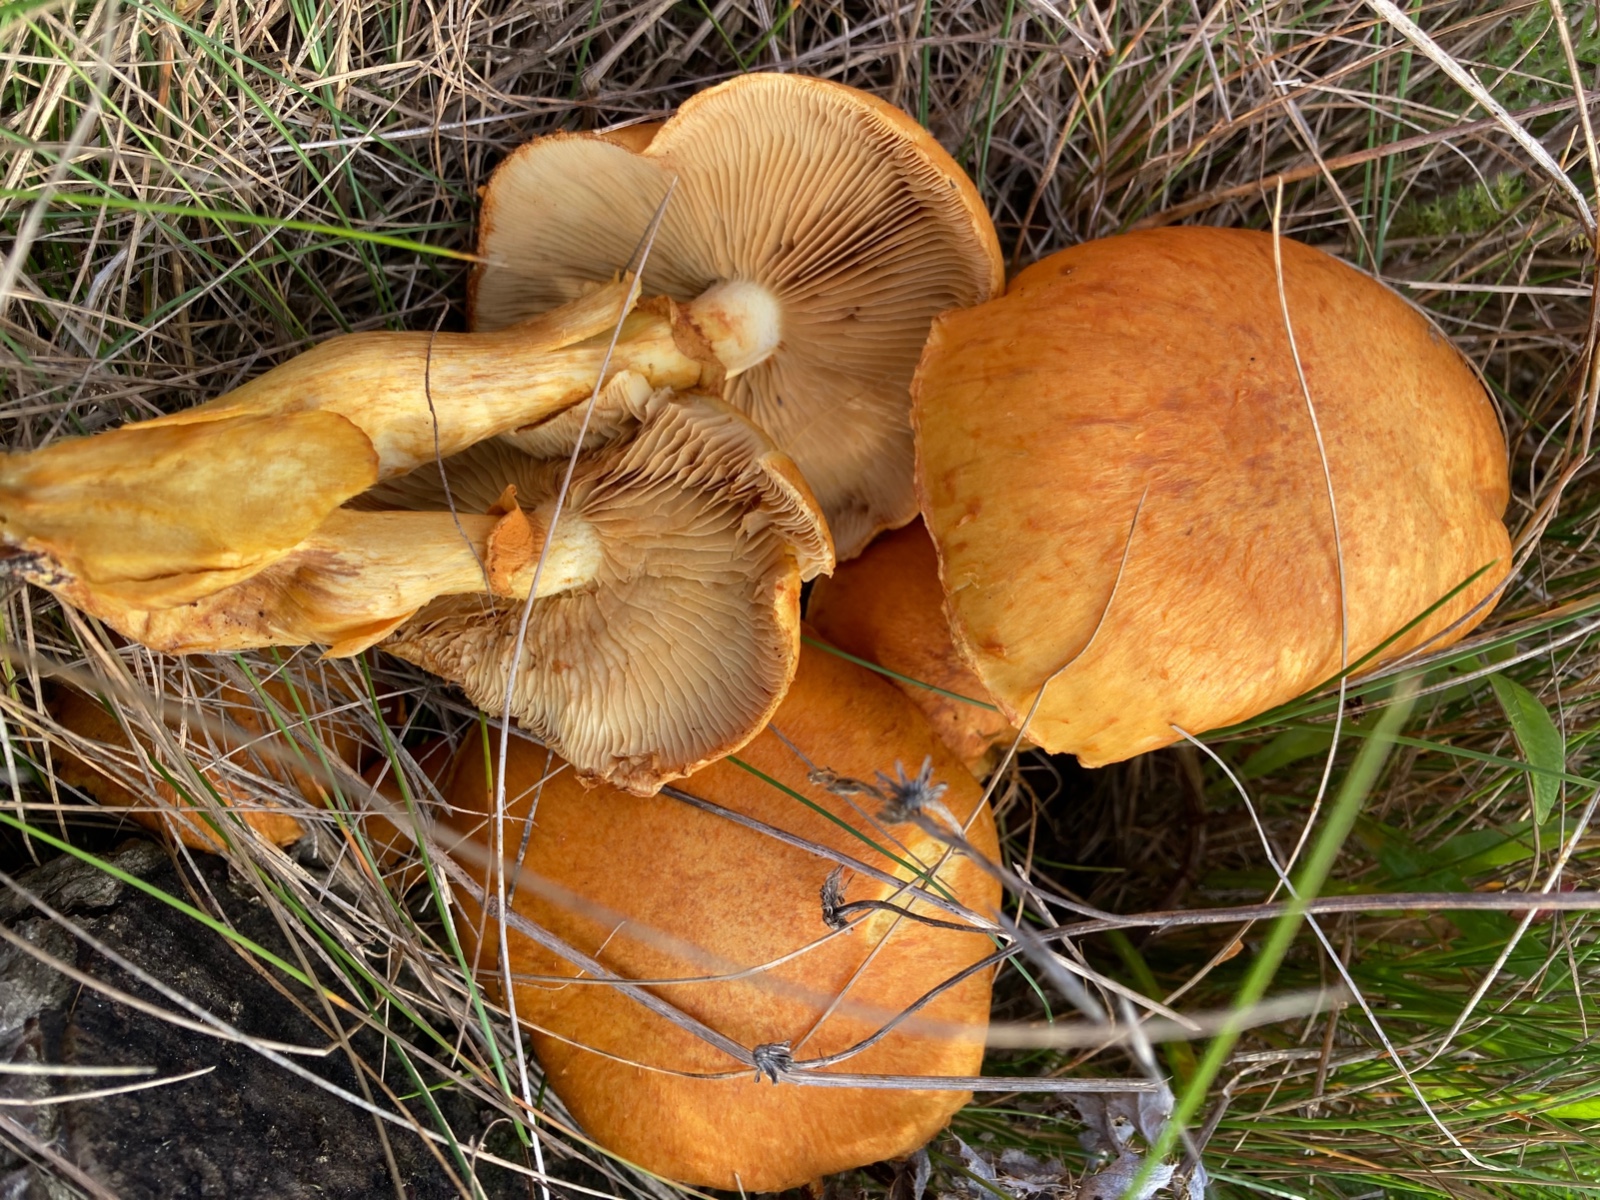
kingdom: Fungi
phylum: Basidiomycota
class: Agaricomycetes
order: Agaricales
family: Hymenogastraceae
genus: Gymnopilus
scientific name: Gymnopilus spectabilis
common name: fibret flammehat
